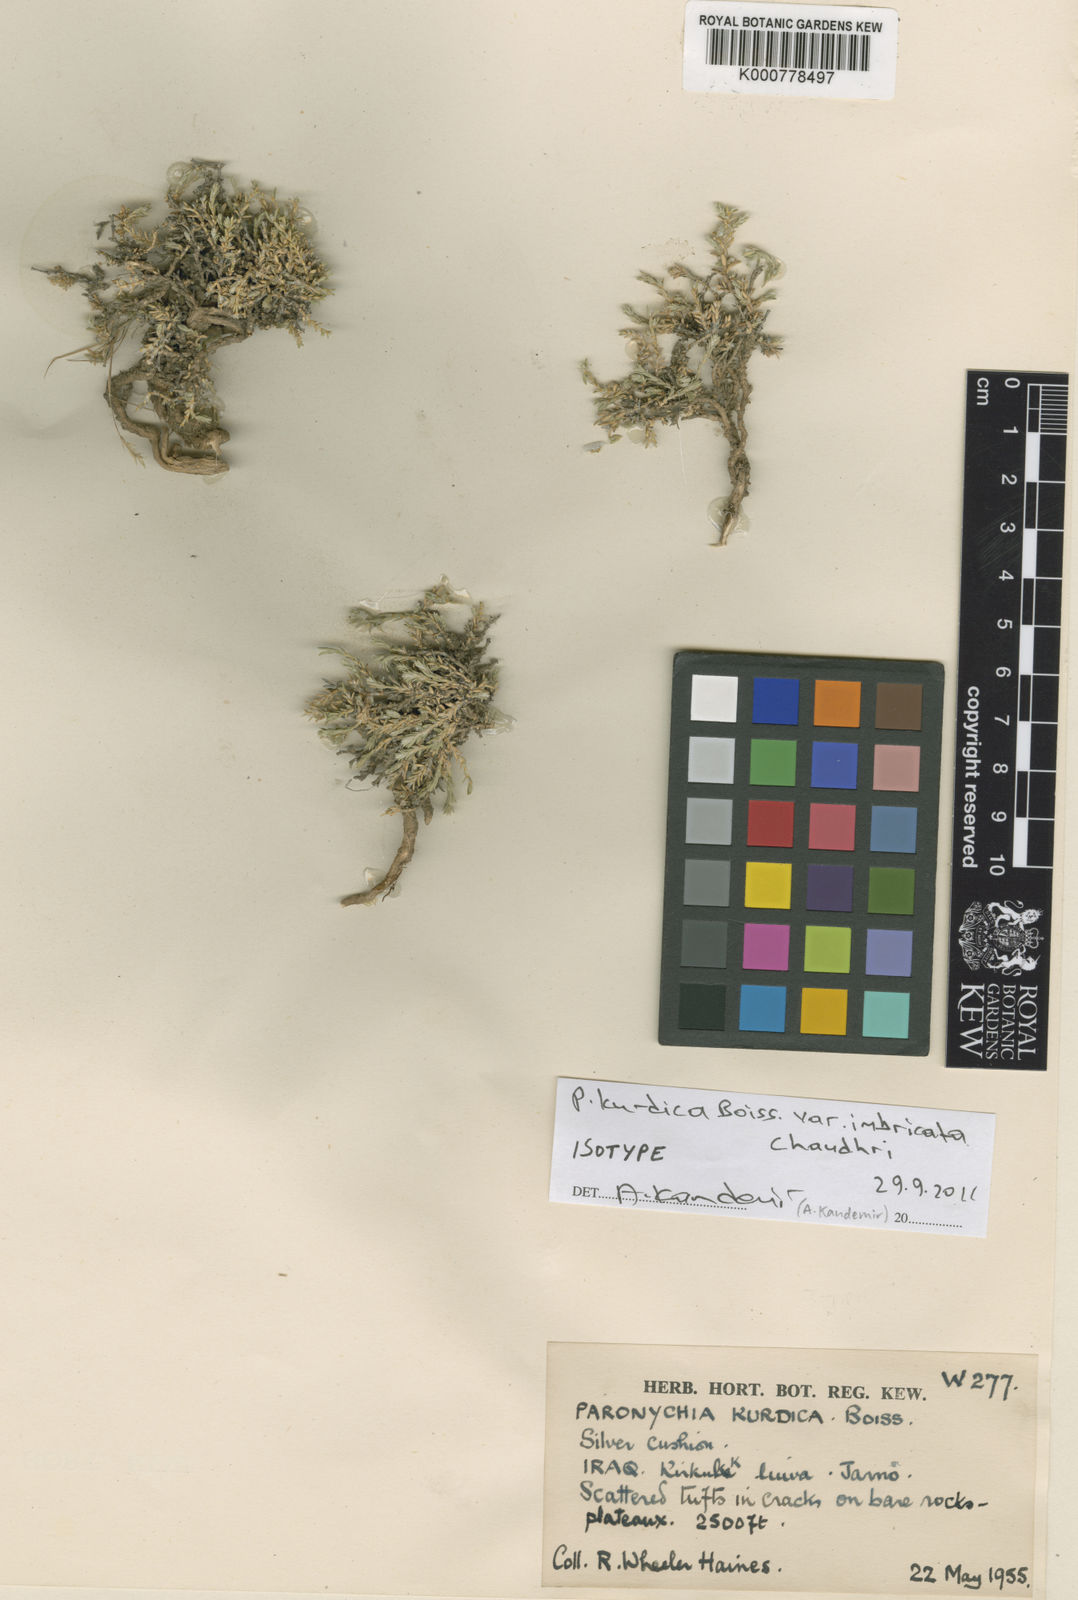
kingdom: Plantae
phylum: Tracheophyta
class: Magnoliopsida
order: Caryophyllales
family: Caryophyllaceae
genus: Paronychia
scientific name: Paronychia kurdica
